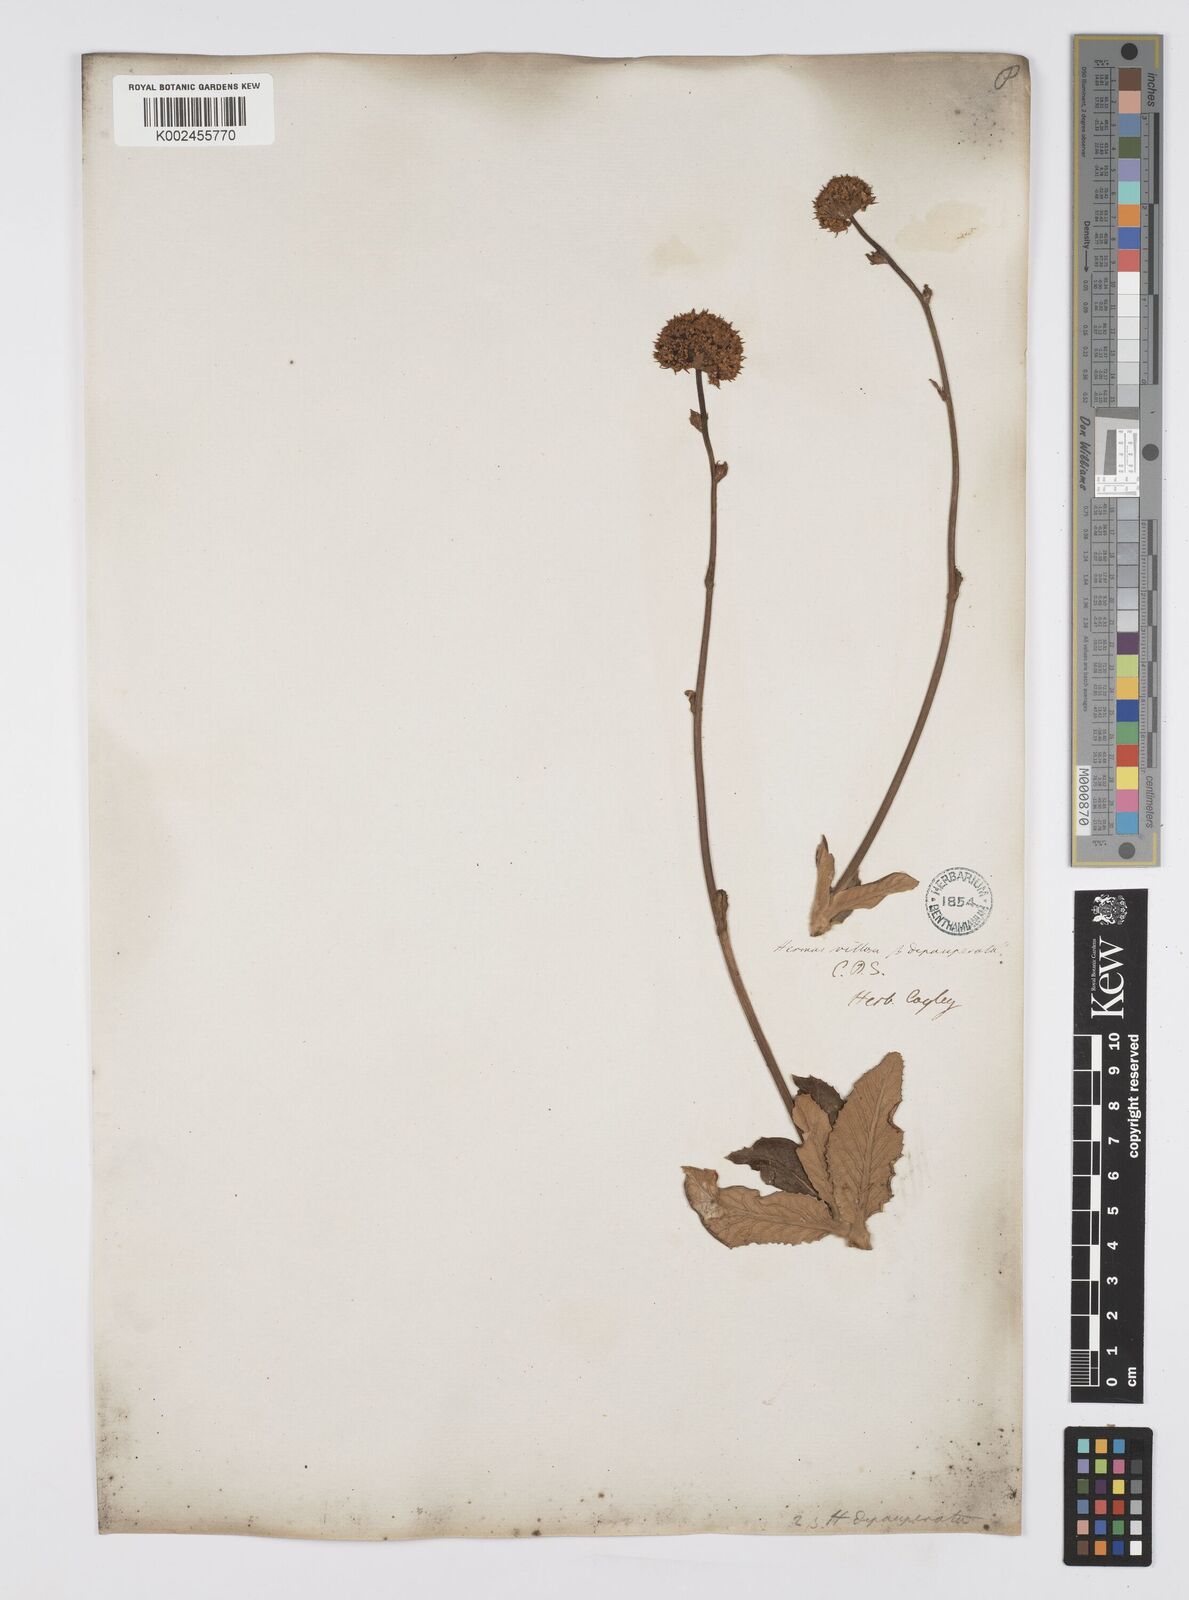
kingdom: Plantae
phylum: Tracheophyta
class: Magnoliopsida
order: Apiales
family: Apiaceae
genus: Hermas
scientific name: Hermas villosa
